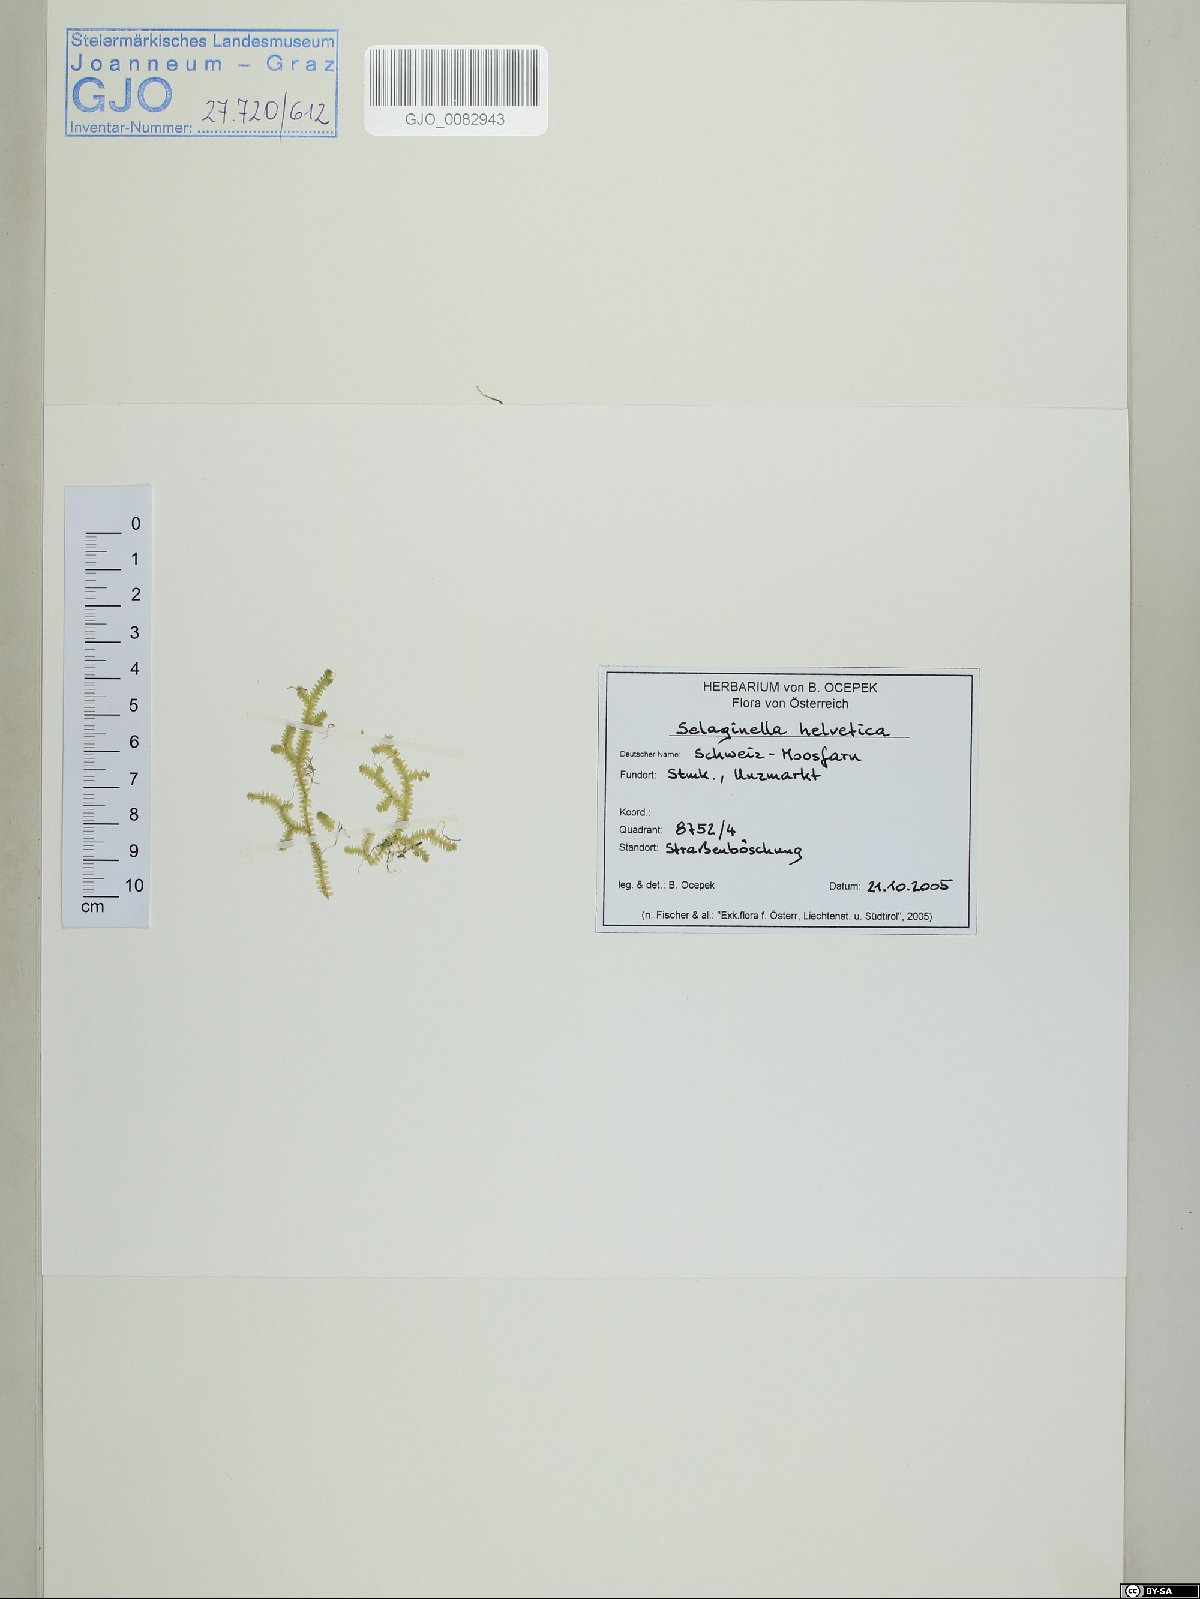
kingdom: Plantae
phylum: Tracheophyta
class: Lycopodiopsida
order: Selaginellales
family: Selaginellaceae
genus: Selaginella
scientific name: Selaginella helvetica
